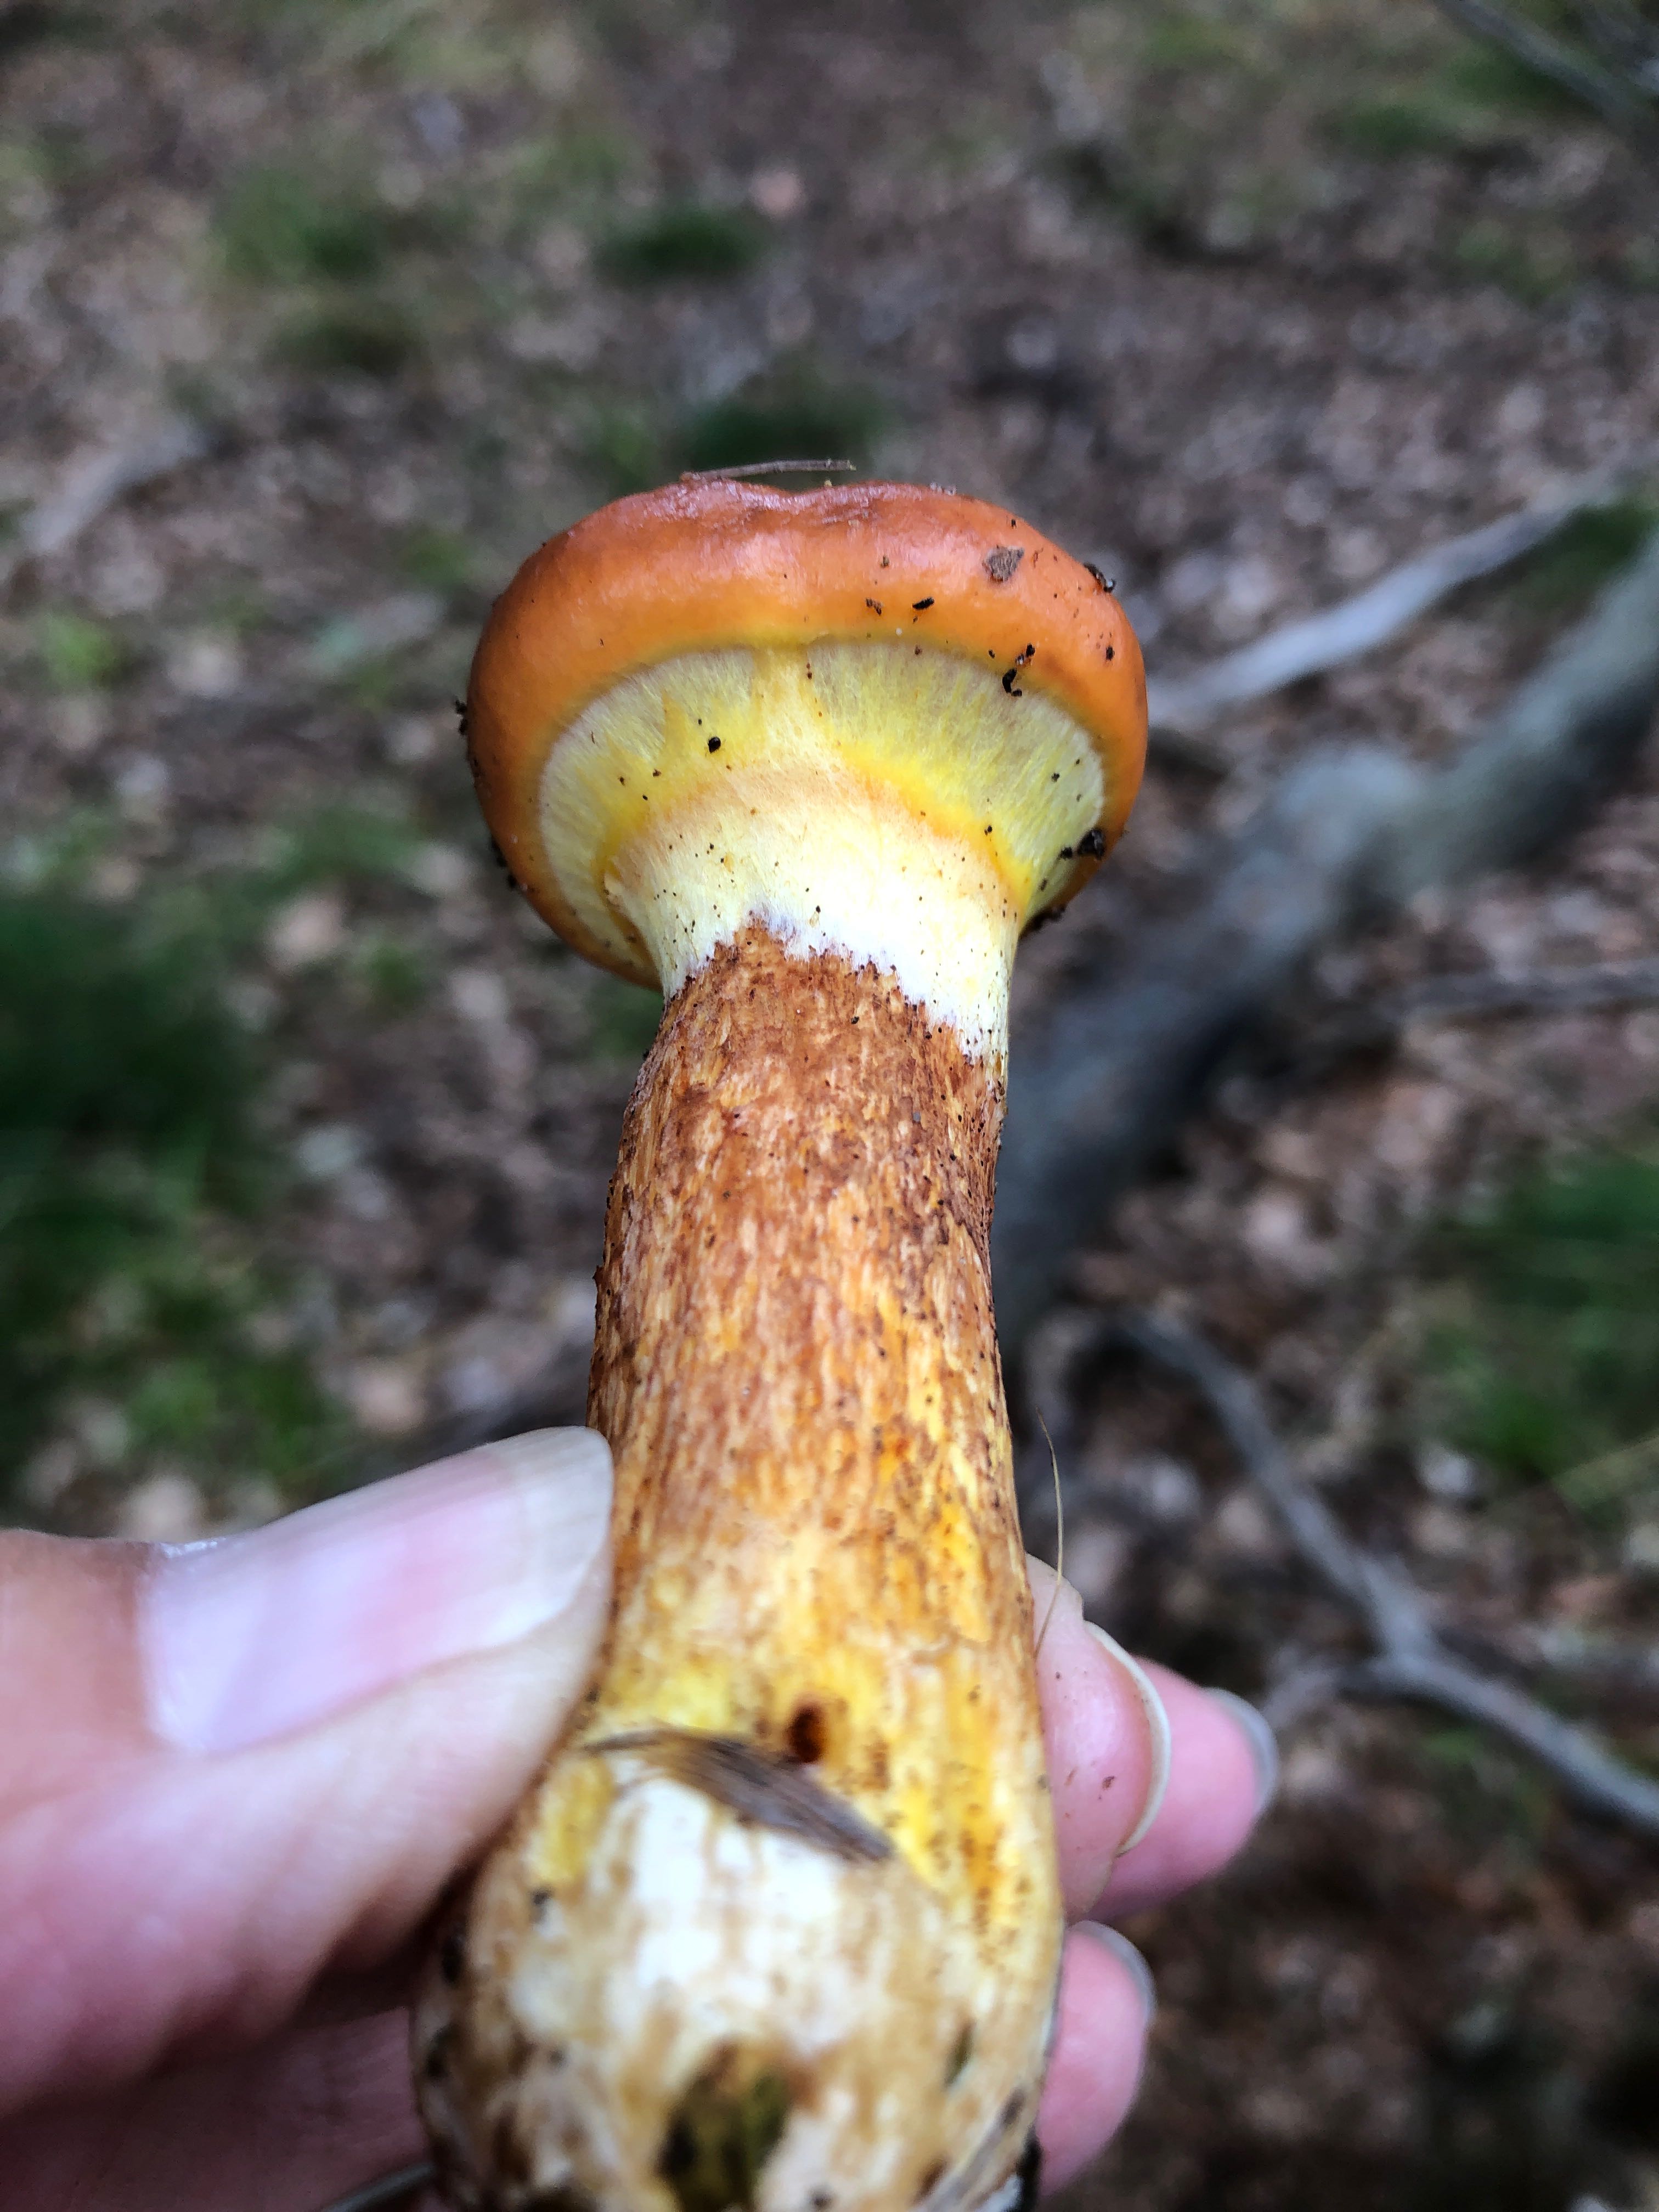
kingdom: Fungi
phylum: Basidiomycota
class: Agaricomycetes
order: Boletales
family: Suillaceae
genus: Suillus
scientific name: Suillus grevillei
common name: lærke-slimrørhat
